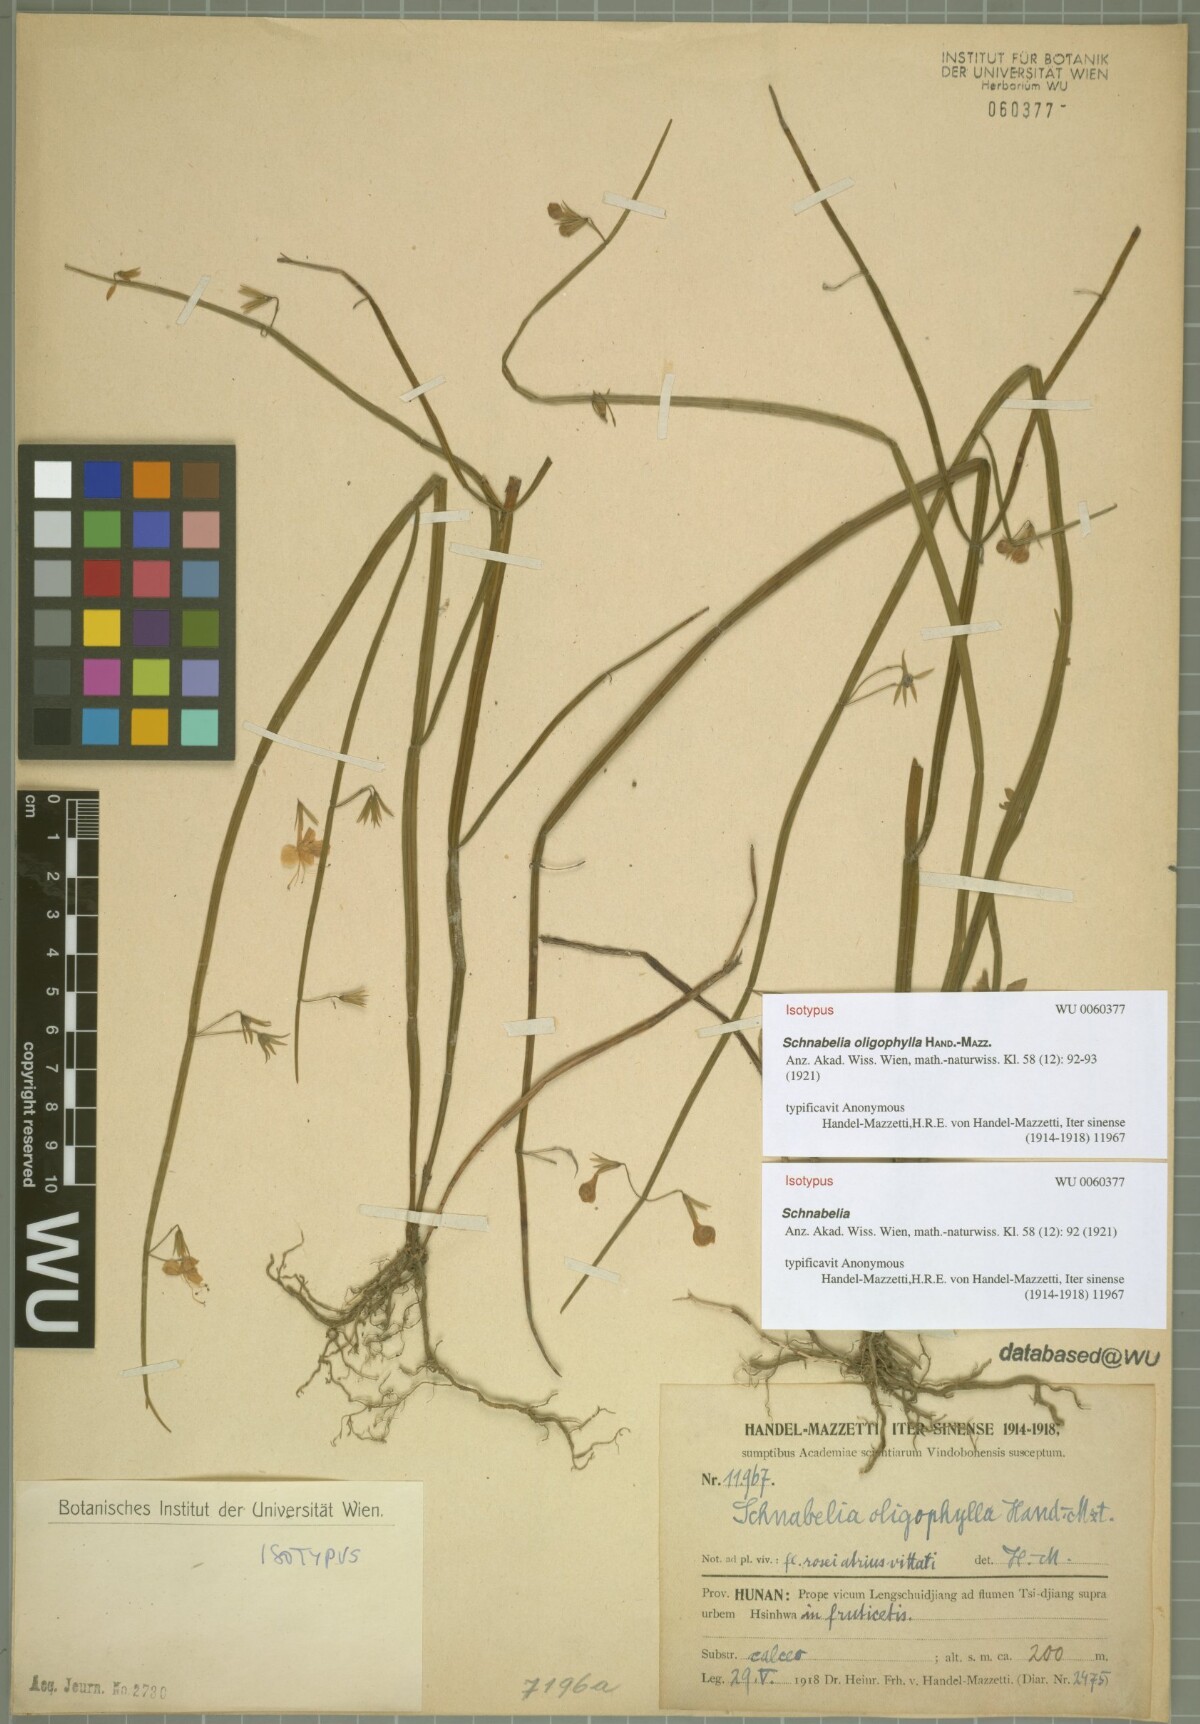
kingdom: Plantae
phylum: Tracheophyta
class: Magnoliopsida
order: Lamiales
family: Lamiaceae
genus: Schnabelia
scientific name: Schnabelia oligophylla
